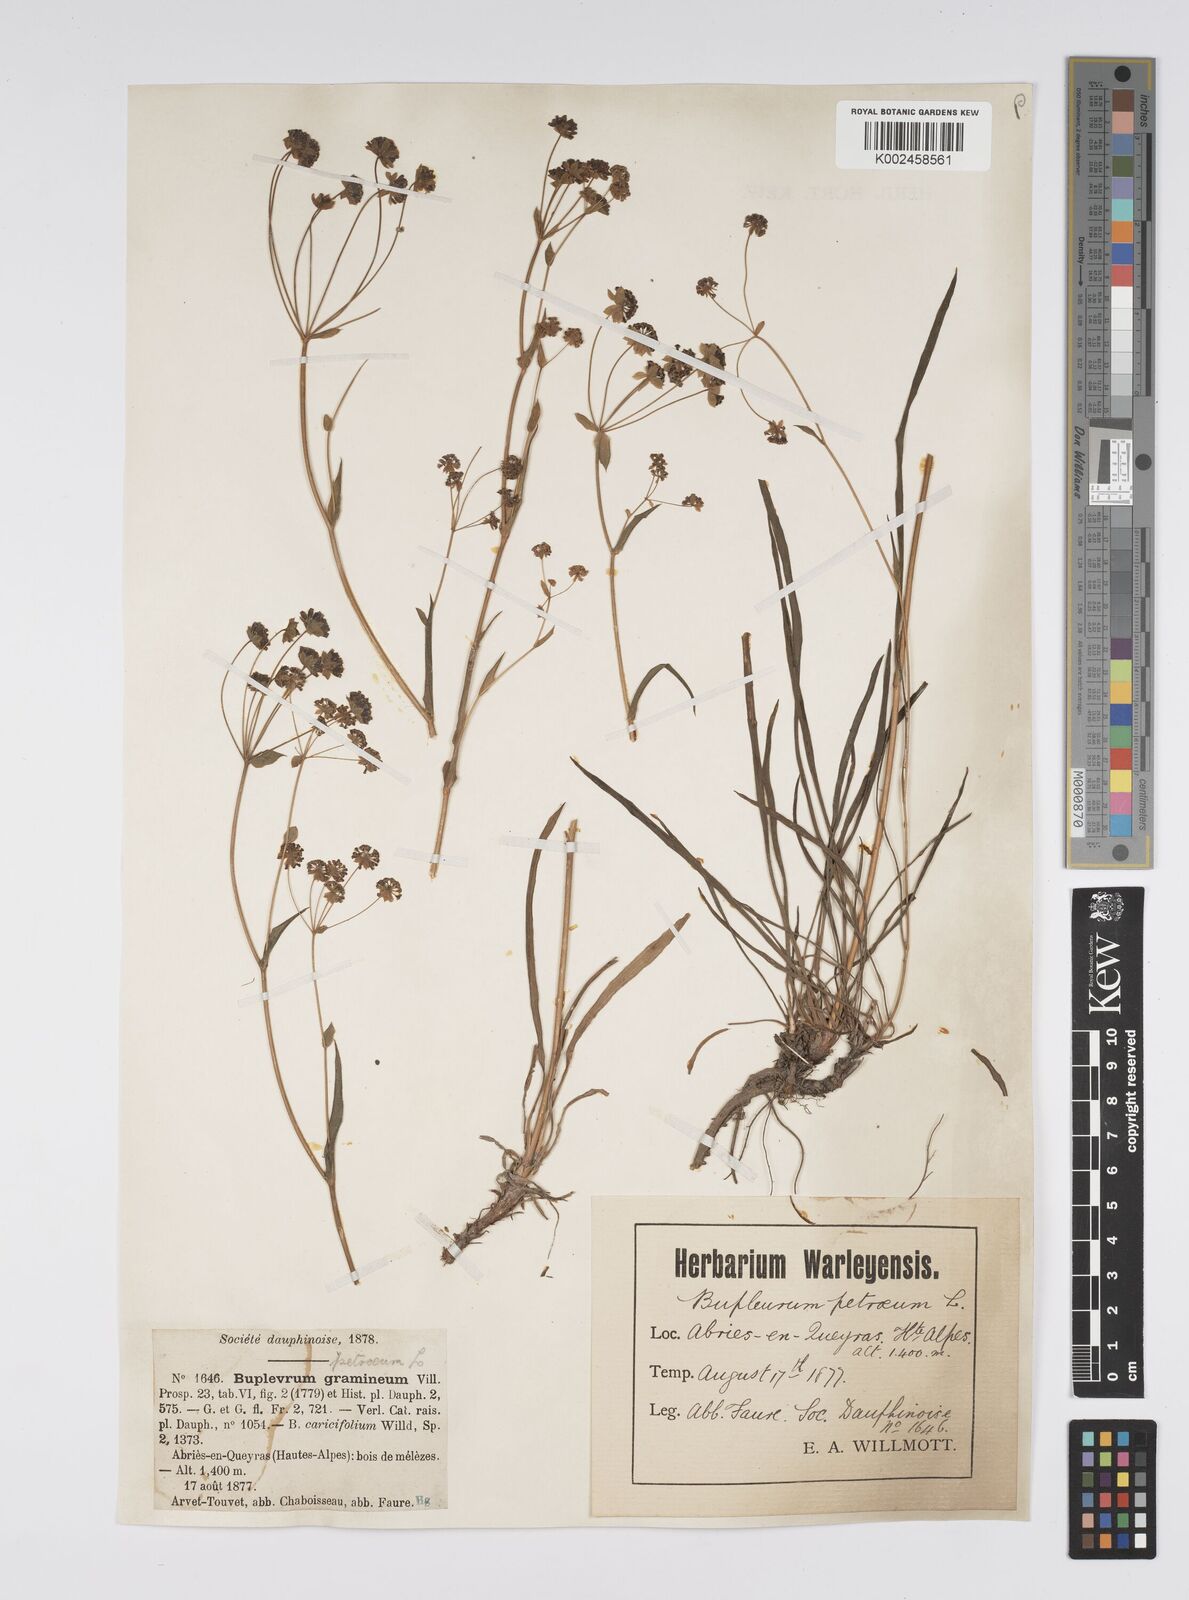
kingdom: Plantae
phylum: Tracheophyta
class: Magnoliopsida
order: Apiales
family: Apiaceae
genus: Bupleurum
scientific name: Bupleurum petraeum
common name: Rock hare's-ear
